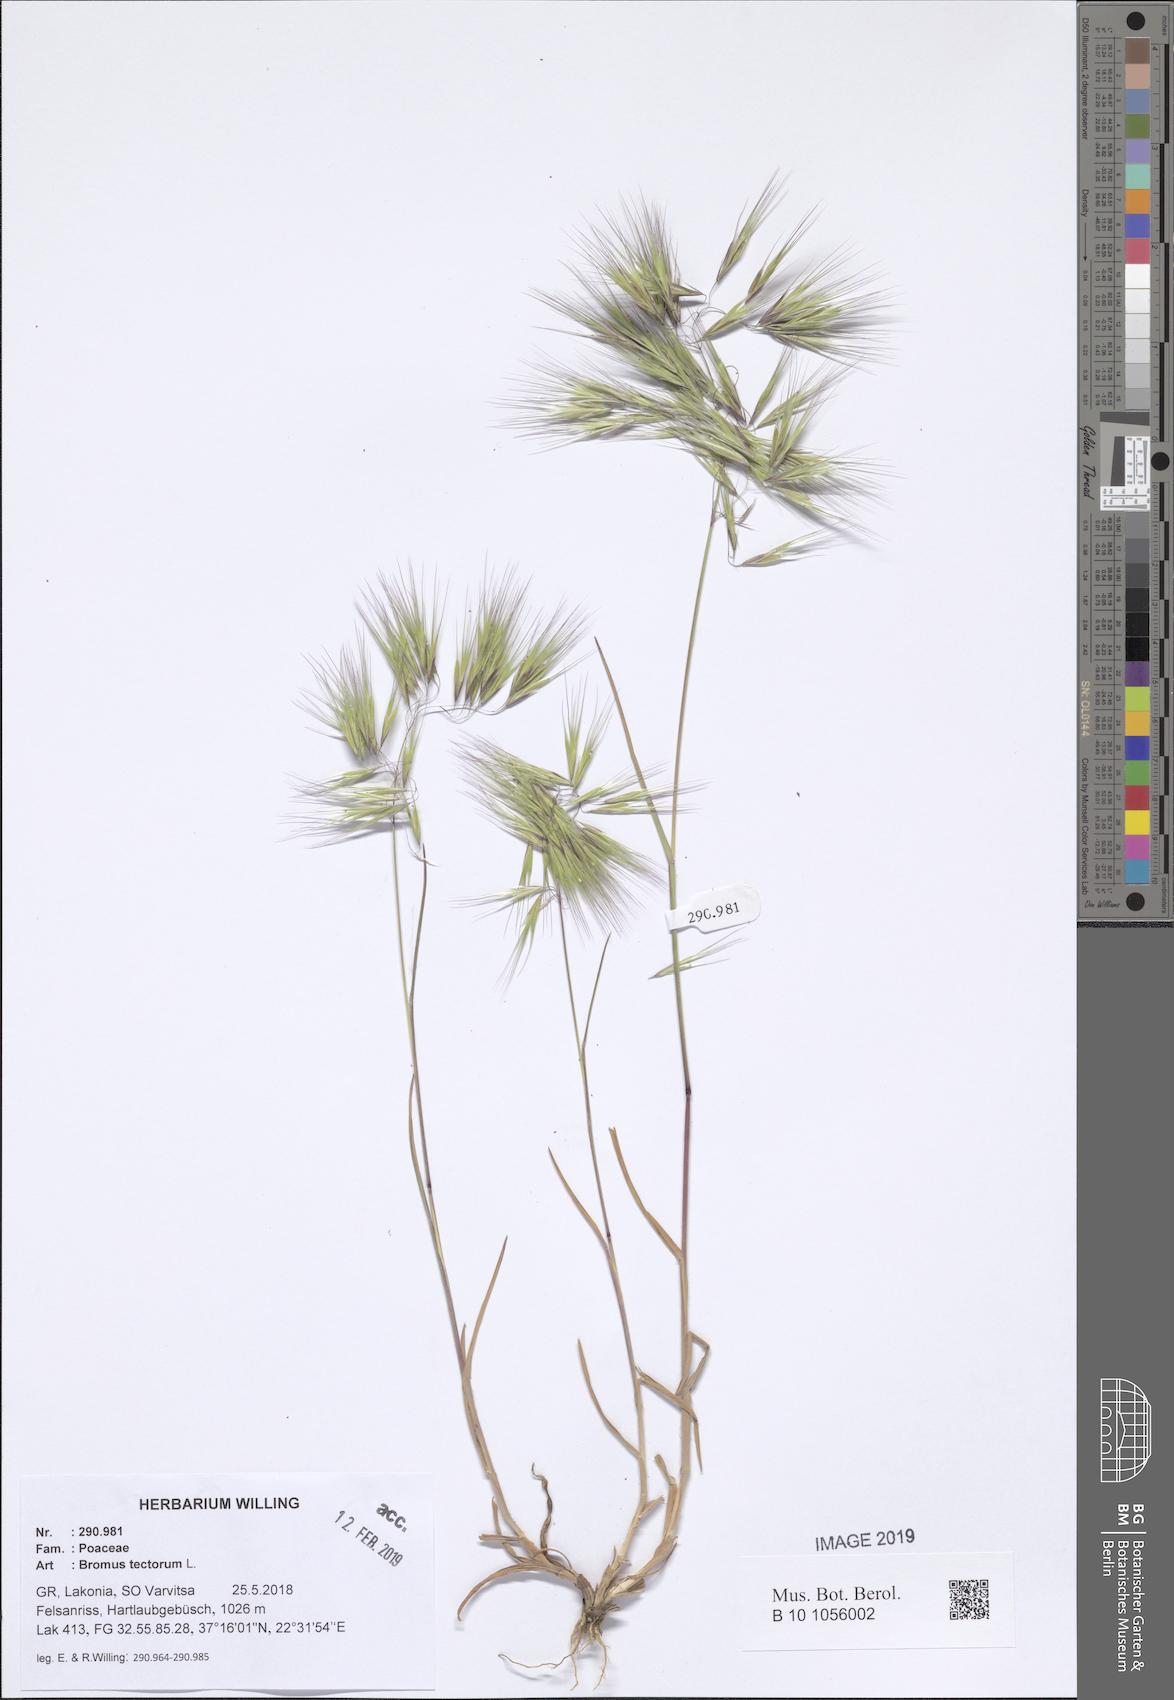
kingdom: Plantae
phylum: Tracheophyta
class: Liliopsida
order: Poales
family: Poaceae
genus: Bromus
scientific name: Bromus tectorum
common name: Cheatgrass
